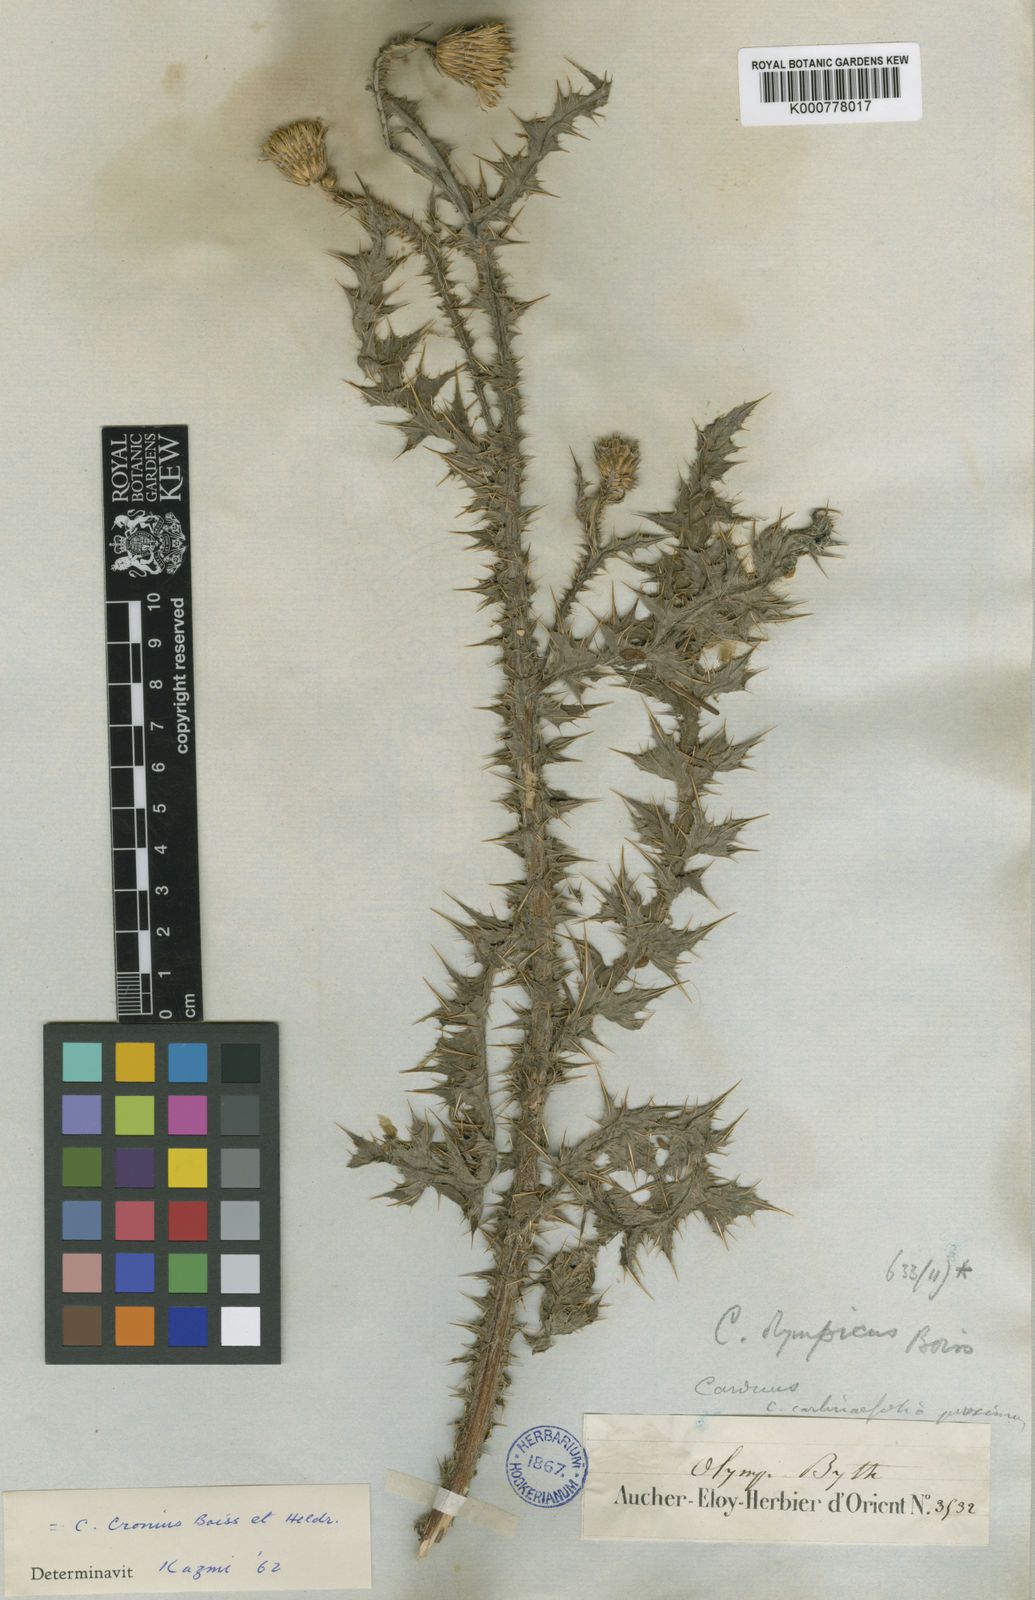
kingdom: Plantae
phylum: Tracheophyta
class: Magnoliopsida
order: Asterales
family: Asteraceae
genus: Carduus
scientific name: Carduus olympicus
